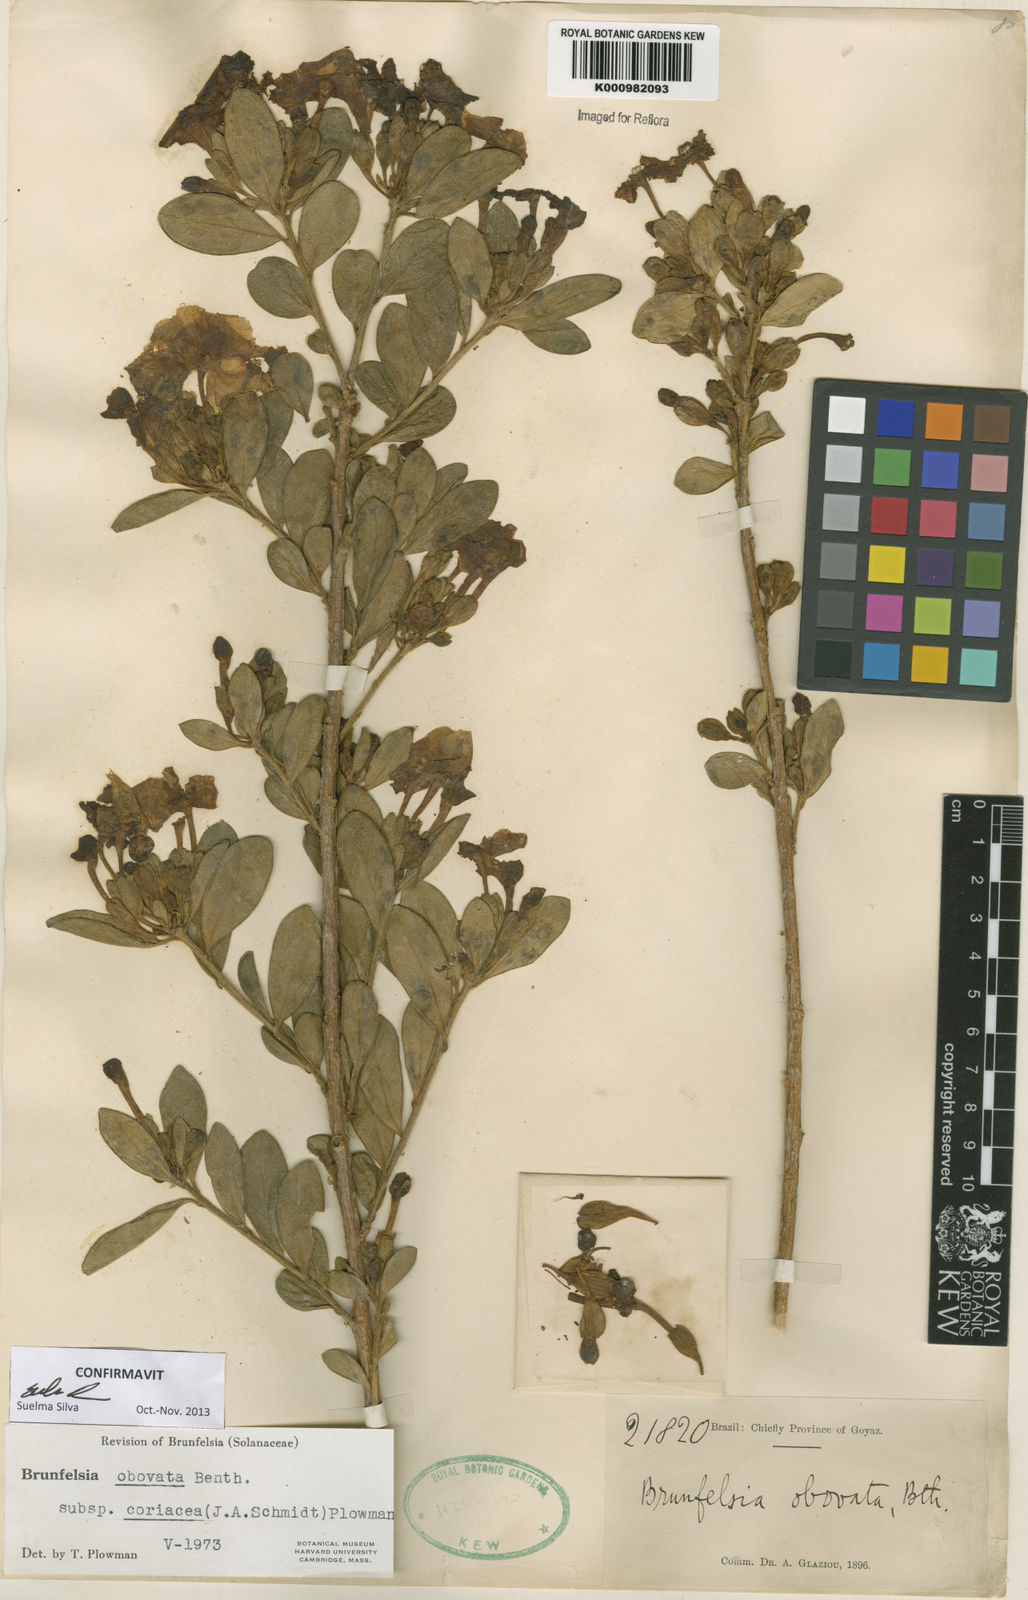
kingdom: Plantae
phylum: Tracheophyta
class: Magnoliopsida
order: Solanales
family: Solanaceae
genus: Brunfelsia
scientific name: Brunfelsia obovata
